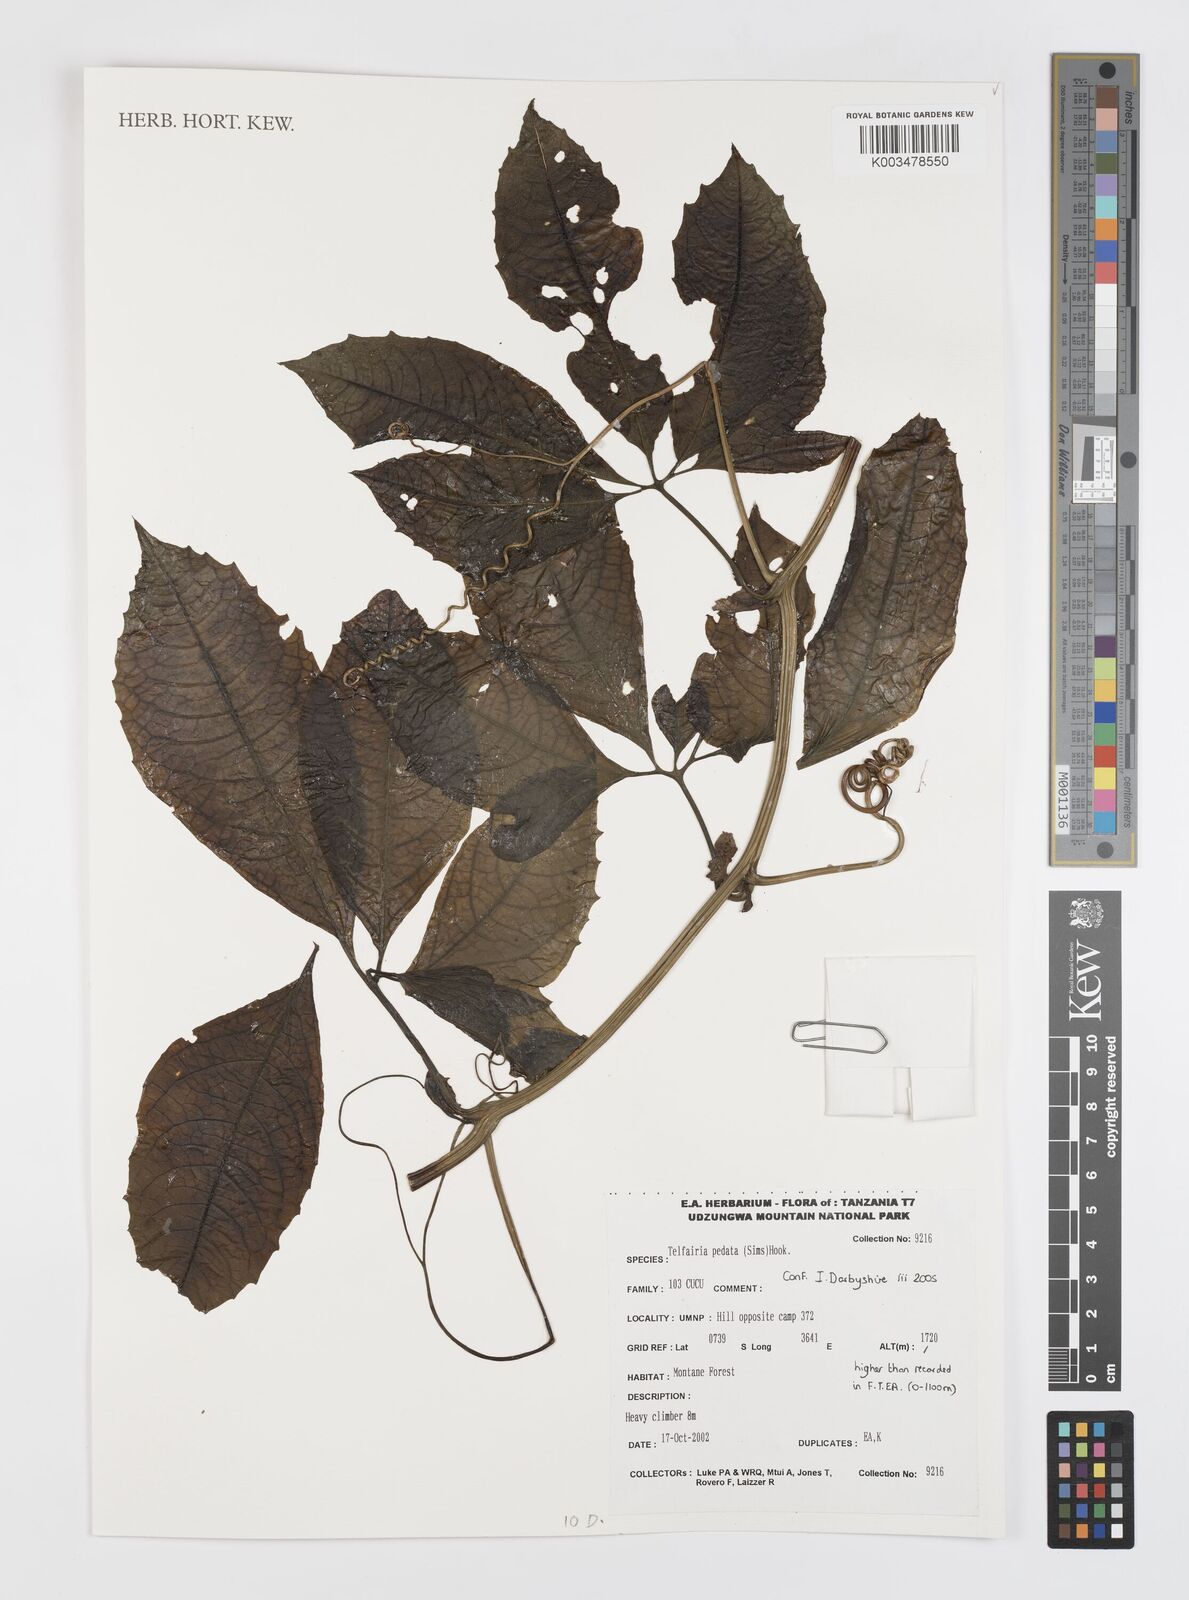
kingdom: Plantae
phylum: Tracheophyta
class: Magnoliopsida
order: Cucurbitales
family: Cucurbitaceae
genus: Telfairia
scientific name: Telfairia pedata
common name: Zanzibar oilvine
